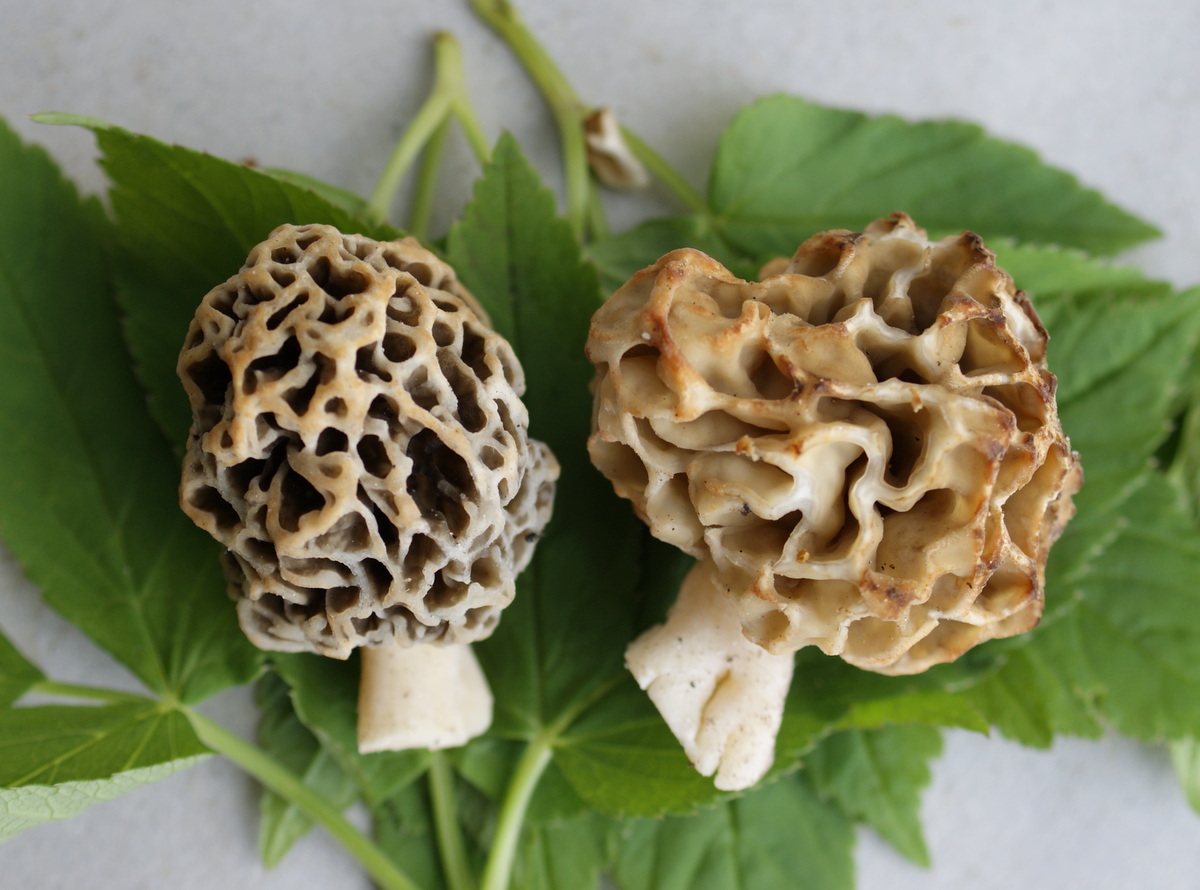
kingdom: Fungi
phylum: Ascomycota
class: Pezizomycetes
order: Pezizales
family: Morchellaceae
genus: Morchella
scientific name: Morchella esculenta
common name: spiselig morkel
